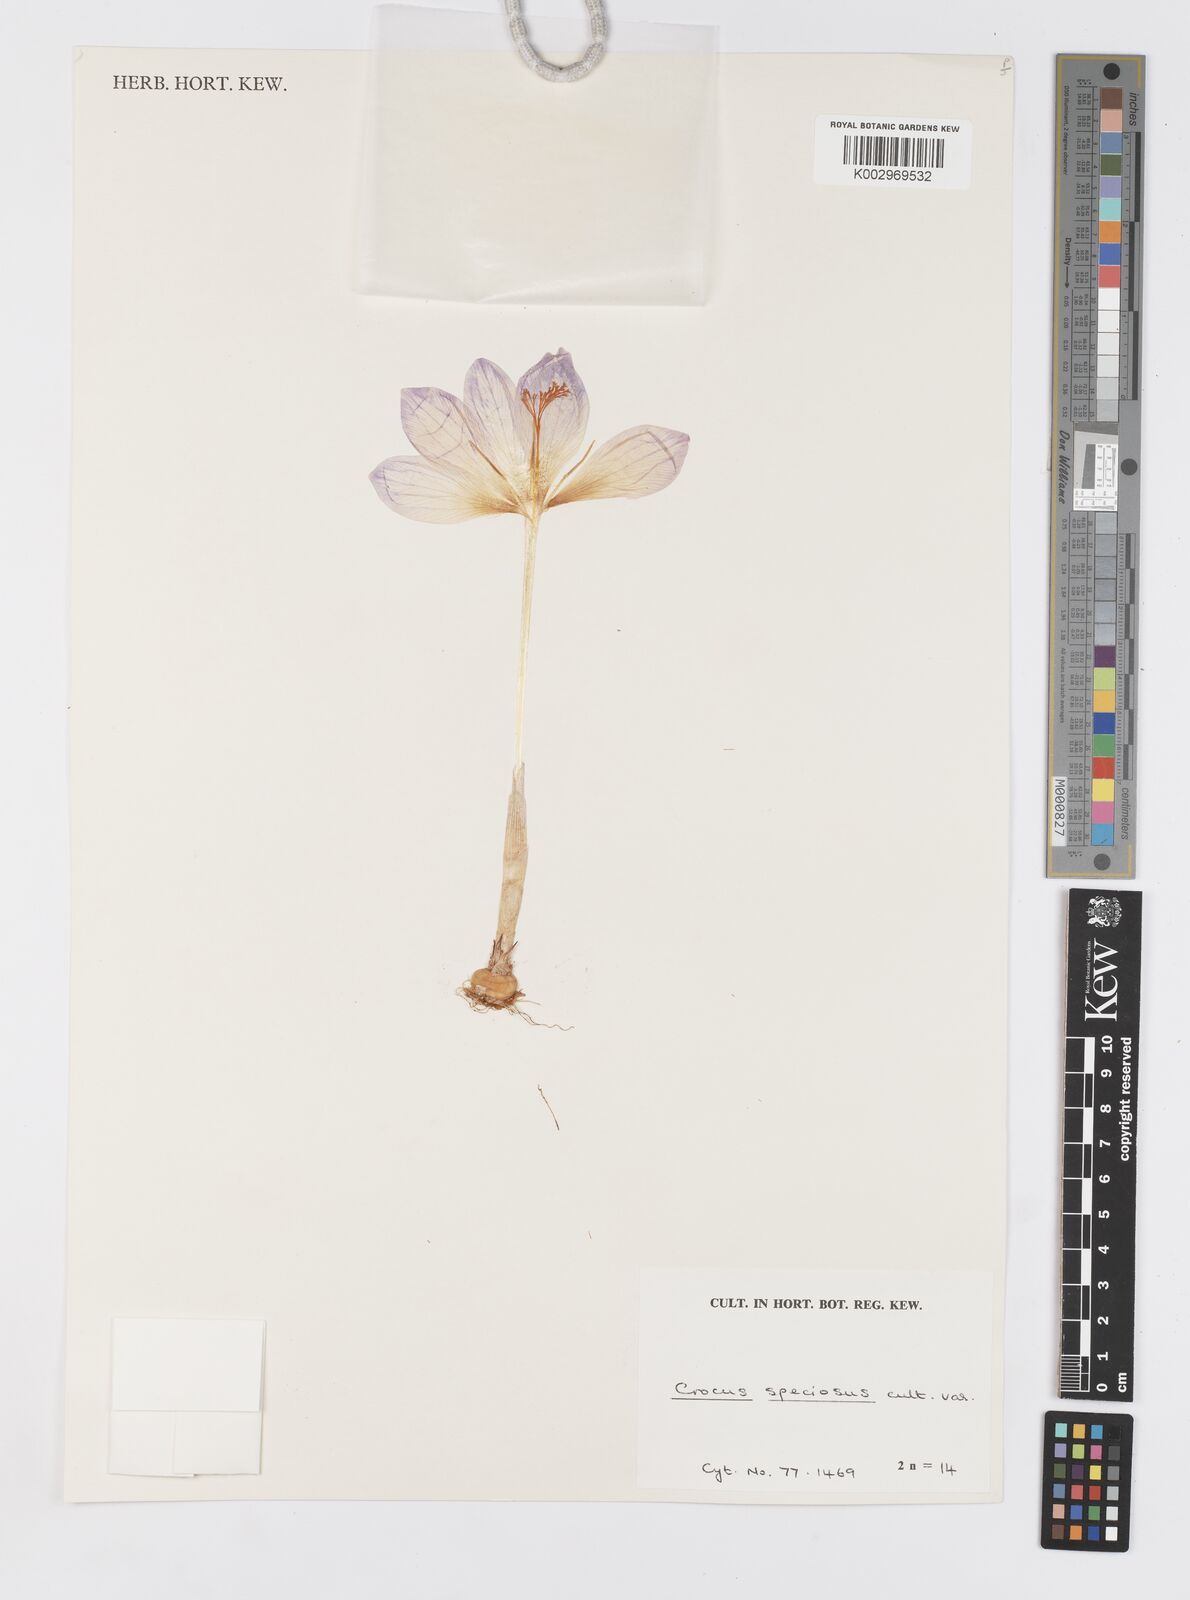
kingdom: Plantae
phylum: Tracheophyta
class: Liliopsida
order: Asparagales
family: Iridaceae
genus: Crocus
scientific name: Crocus speciosus
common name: Bieberstein's crocus
